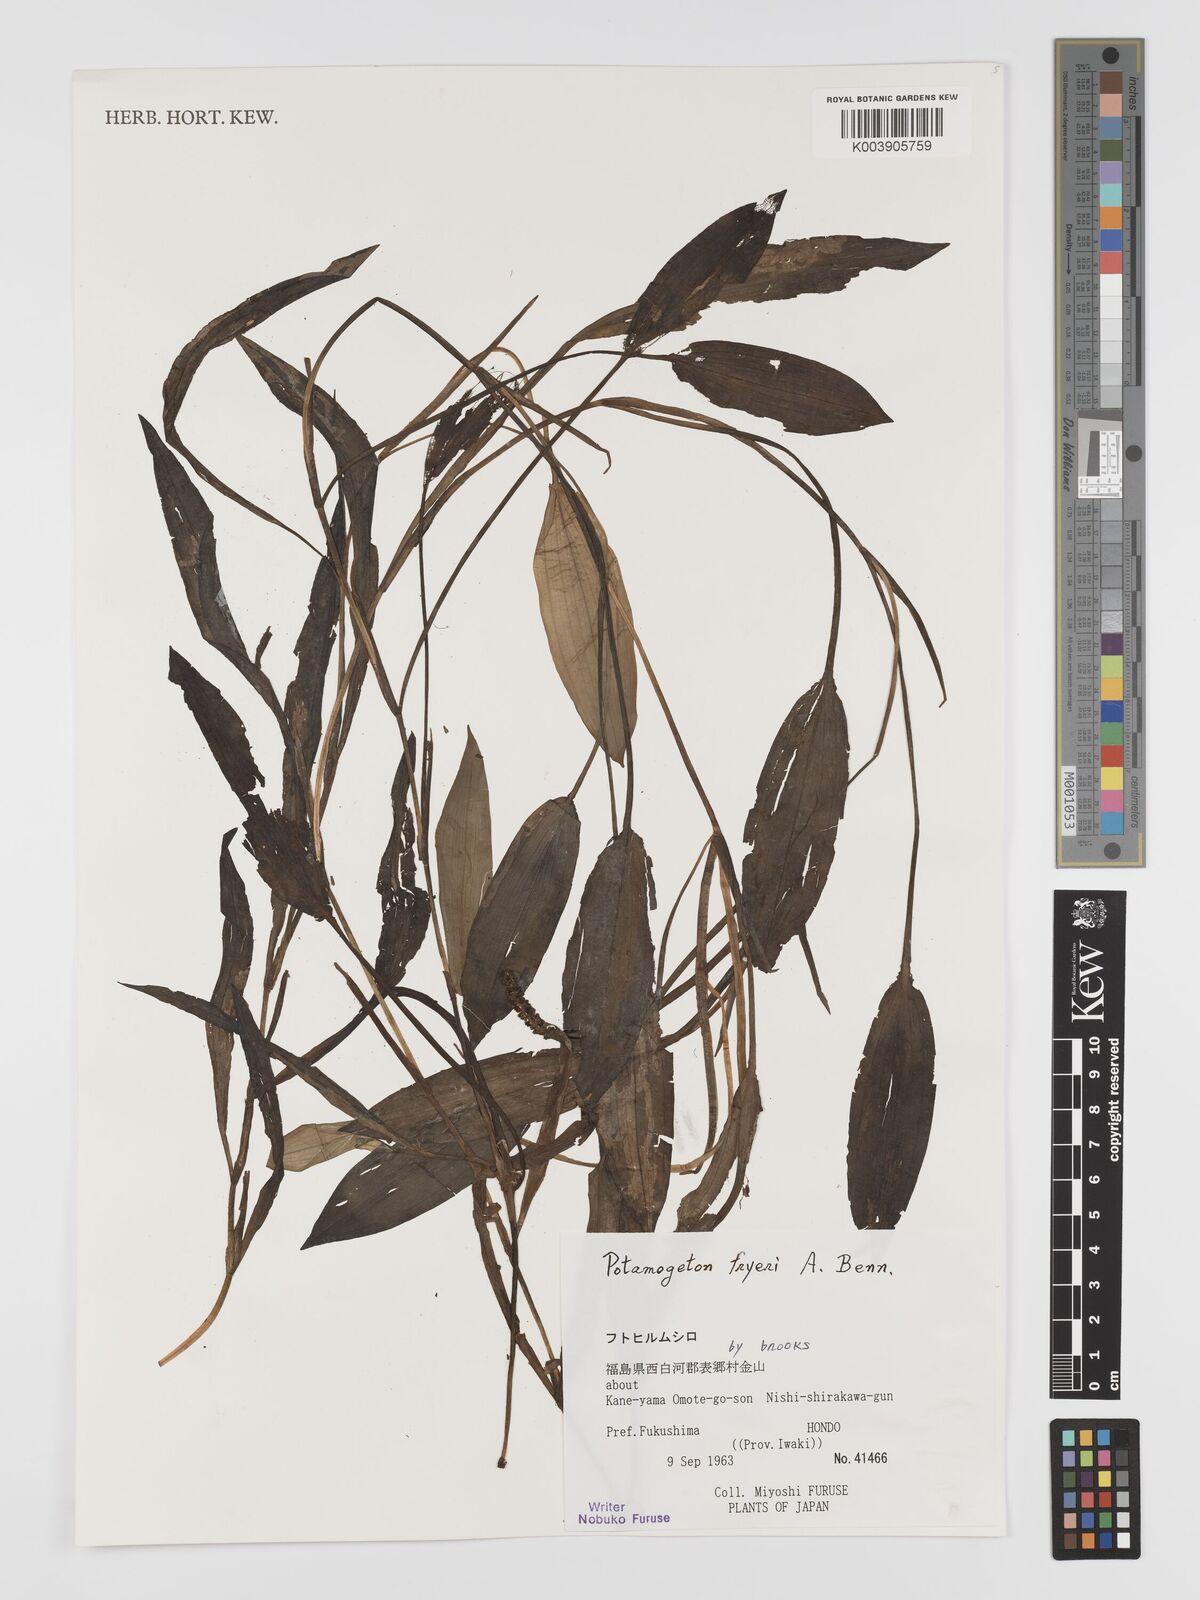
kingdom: Plantae
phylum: Tracheophyta
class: Liliopsida
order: Alismatales
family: Potamogetonaceae
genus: Potamogeton
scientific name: Potamogeton fryeri
